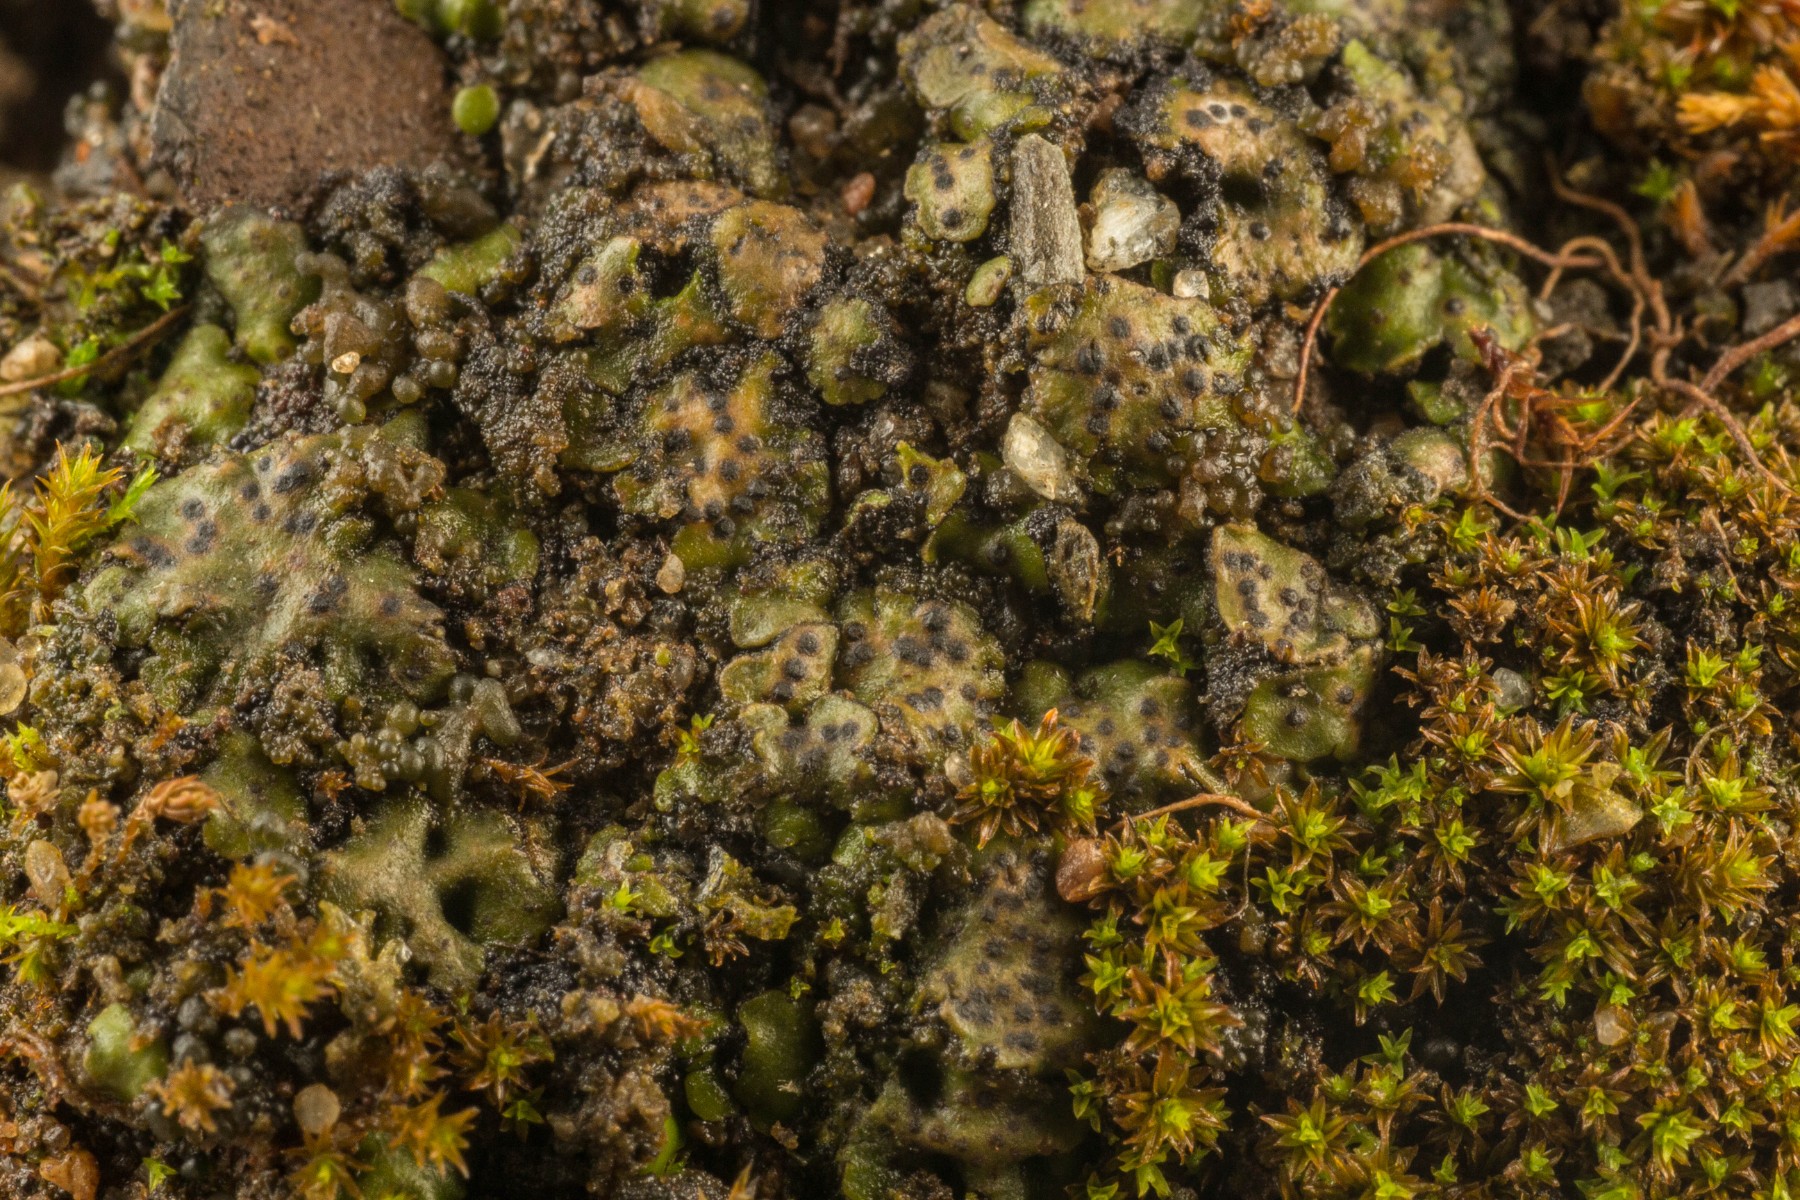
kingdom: Fungi
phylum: Ascomycota
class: Eurotiomycetes
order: Verrucariales
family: Verrucariaceae
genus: Catapyrenium
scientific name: Catapyrenium michelii
